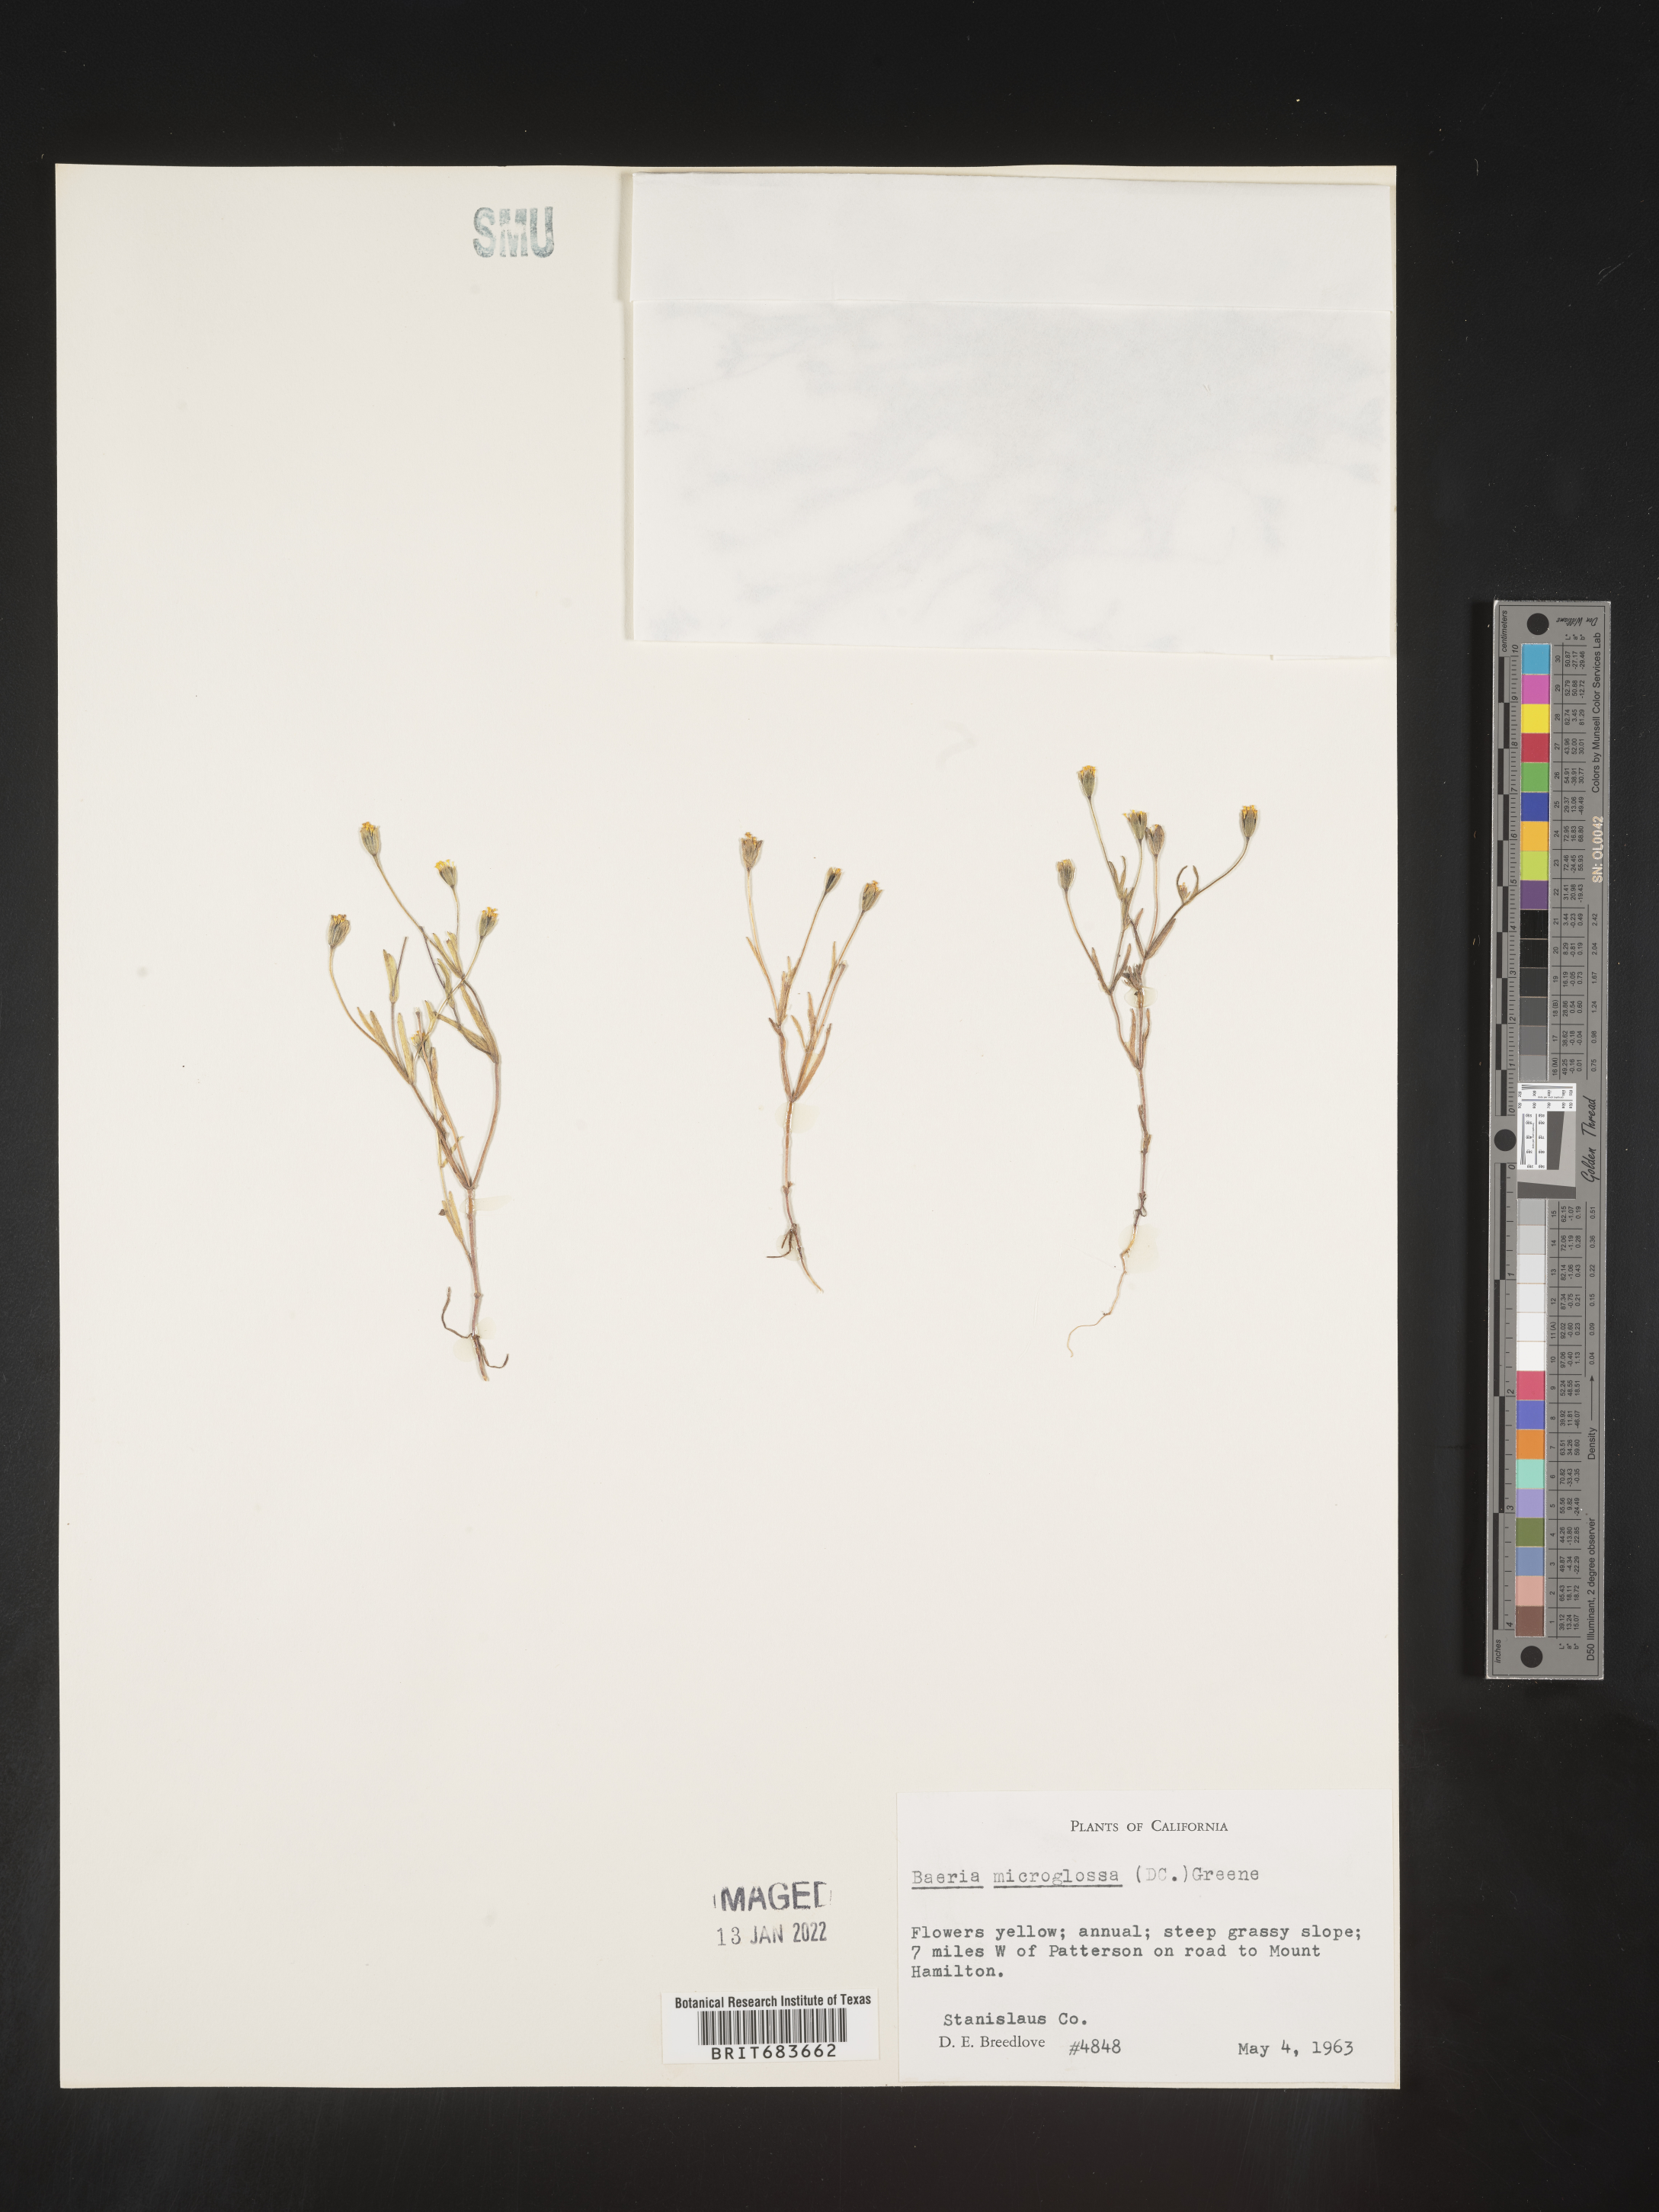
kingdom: Plantae
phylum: Tracheophyta
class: Magnoliopsida
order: Asterales
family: Asteraceae
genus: Lasthenia
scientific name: Lasthenia
